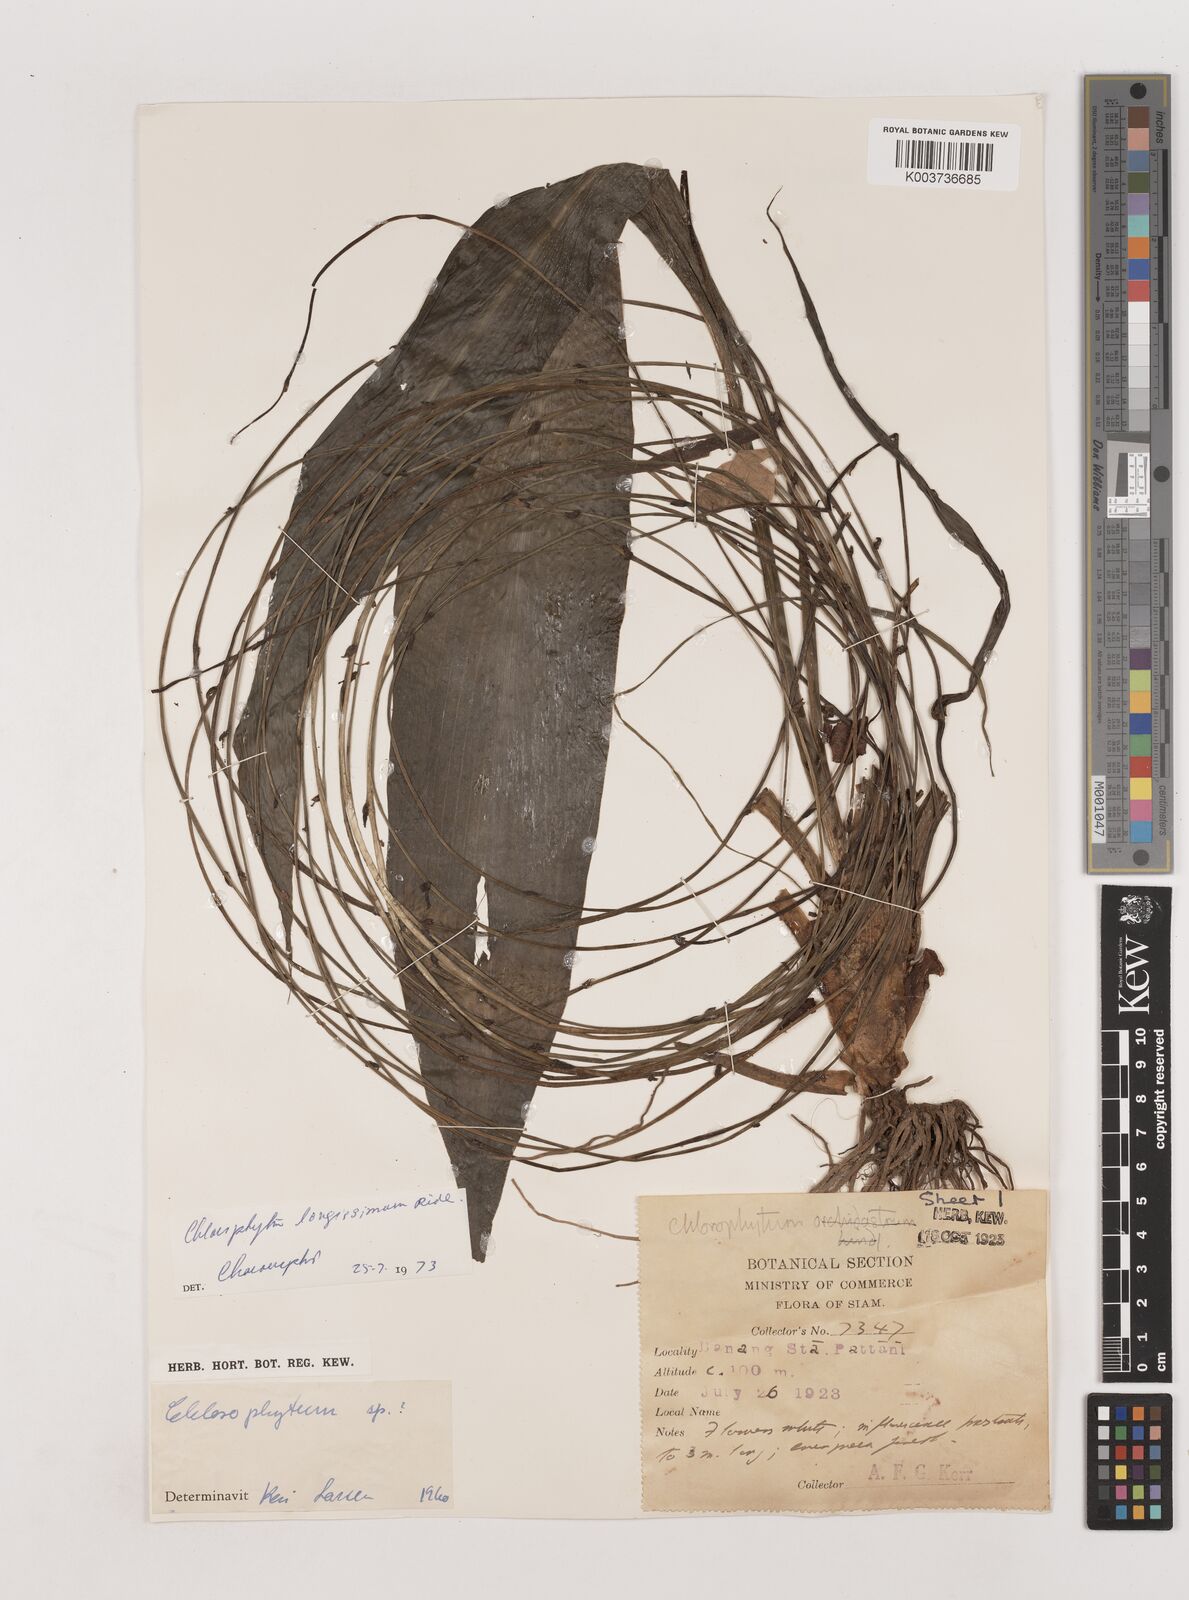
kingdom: Plantae
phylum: Tracheophyta
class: Liliopsida
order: Asparagales
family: Asparagaceae
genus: Chlorophytum
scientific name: Chlorophytum longissimum
